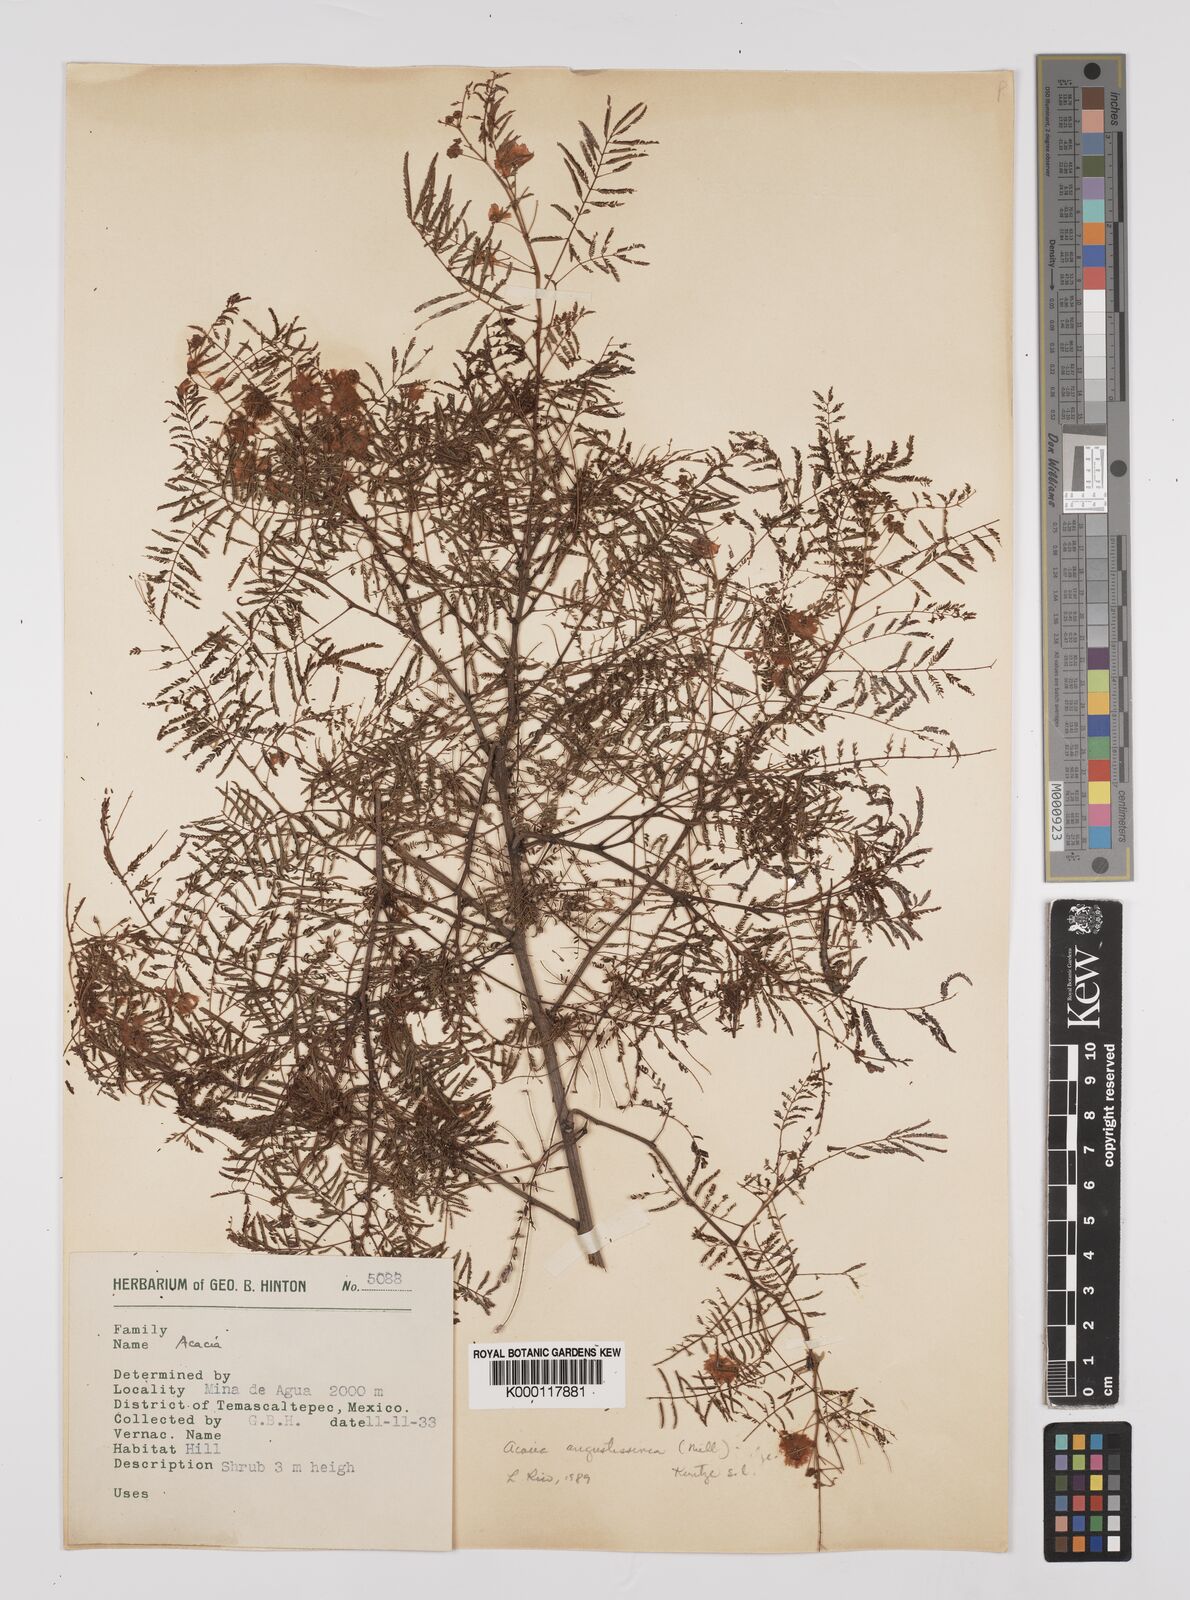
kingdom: Plantae
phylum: Tracheophyta
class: Magnoliopsida
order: Fabales
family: Fabaceae
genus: Acaciella
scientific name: Acaciella angustissima
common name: Prairie acacia
